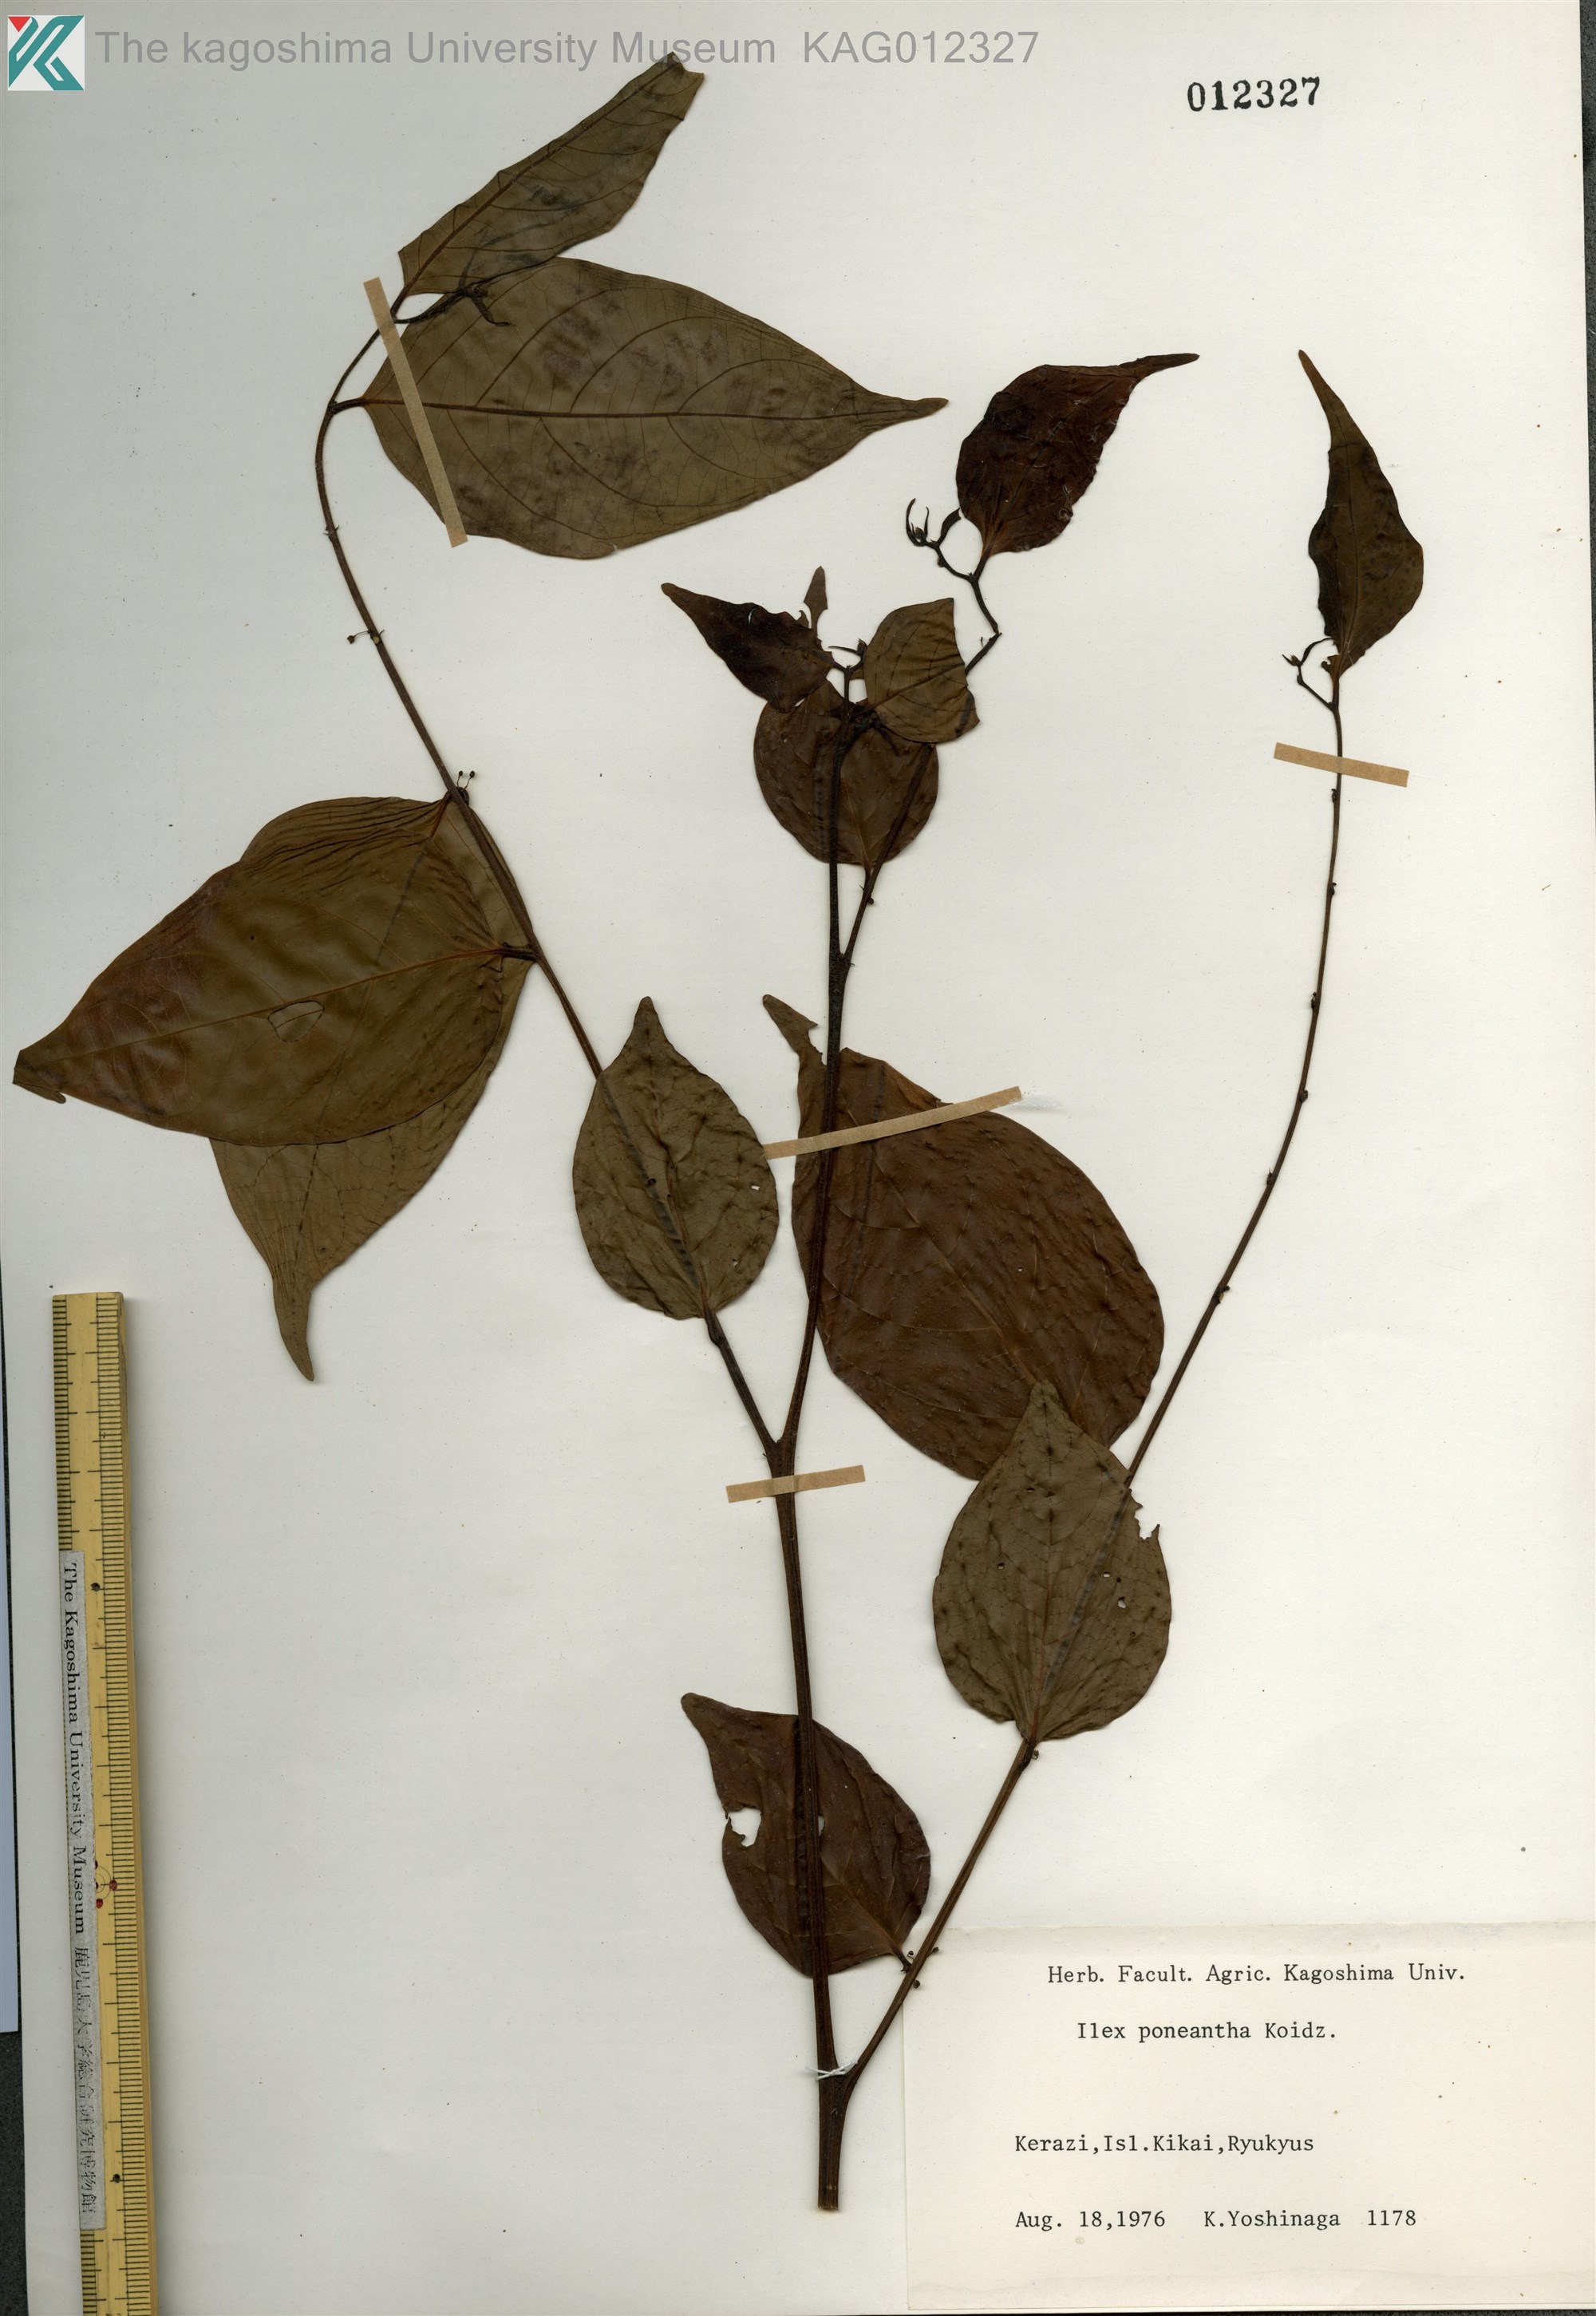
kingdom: Plantae
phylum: Tracheophyta
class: Magnoliopsida
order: Malpighiales
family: Phyllanthaceae
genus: Glochidion
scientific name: Glochidion lanceolatum
